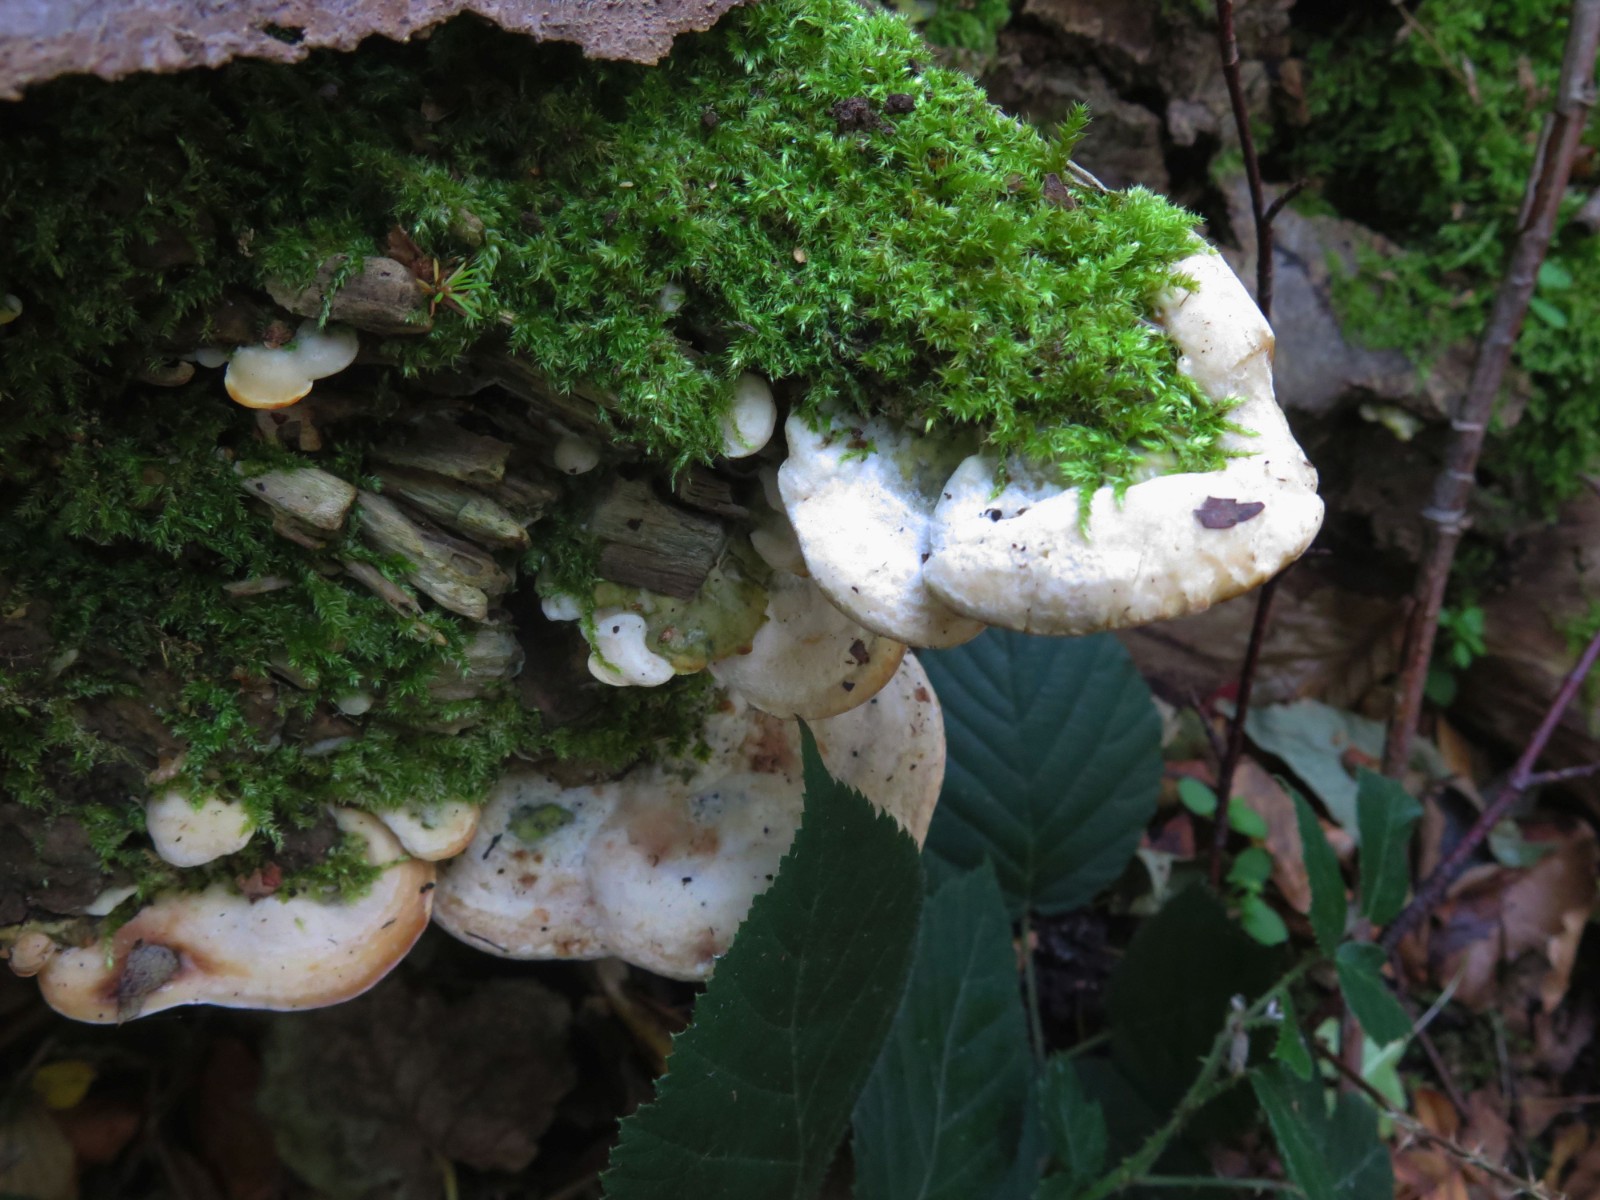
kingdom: Fungi
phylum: Basidiomycota
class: Agaricomycetes
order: Polyporales
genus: Fuscopostia
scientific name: Fuscopostia fragilis
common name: brunende kødporesvamp
